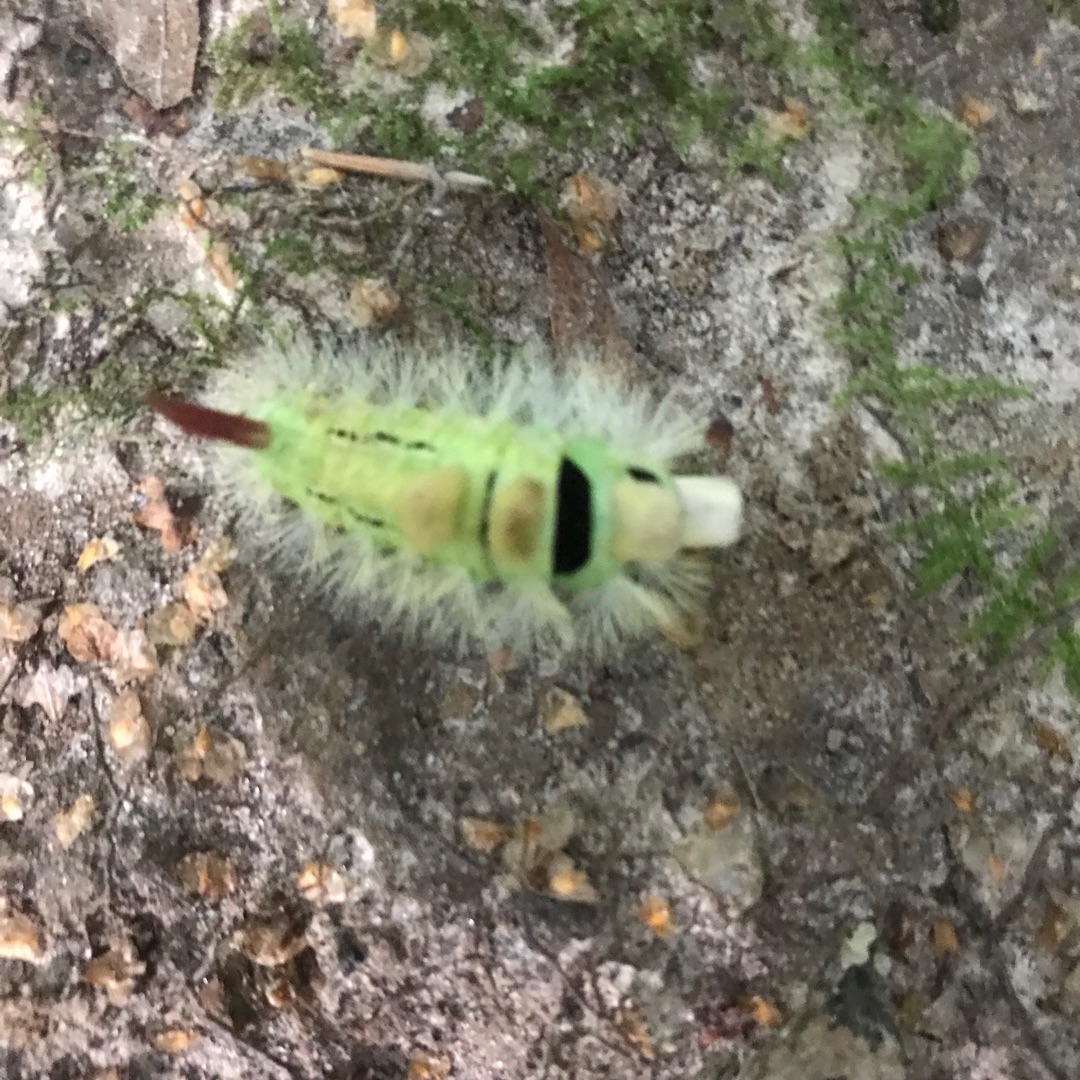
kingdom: Animalia
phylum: Arthropoda
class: Insecta
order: Lepidoptera
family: Erebidae
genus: Calliteara
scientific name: Calliteara pudibunda
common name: Bøgenonne
